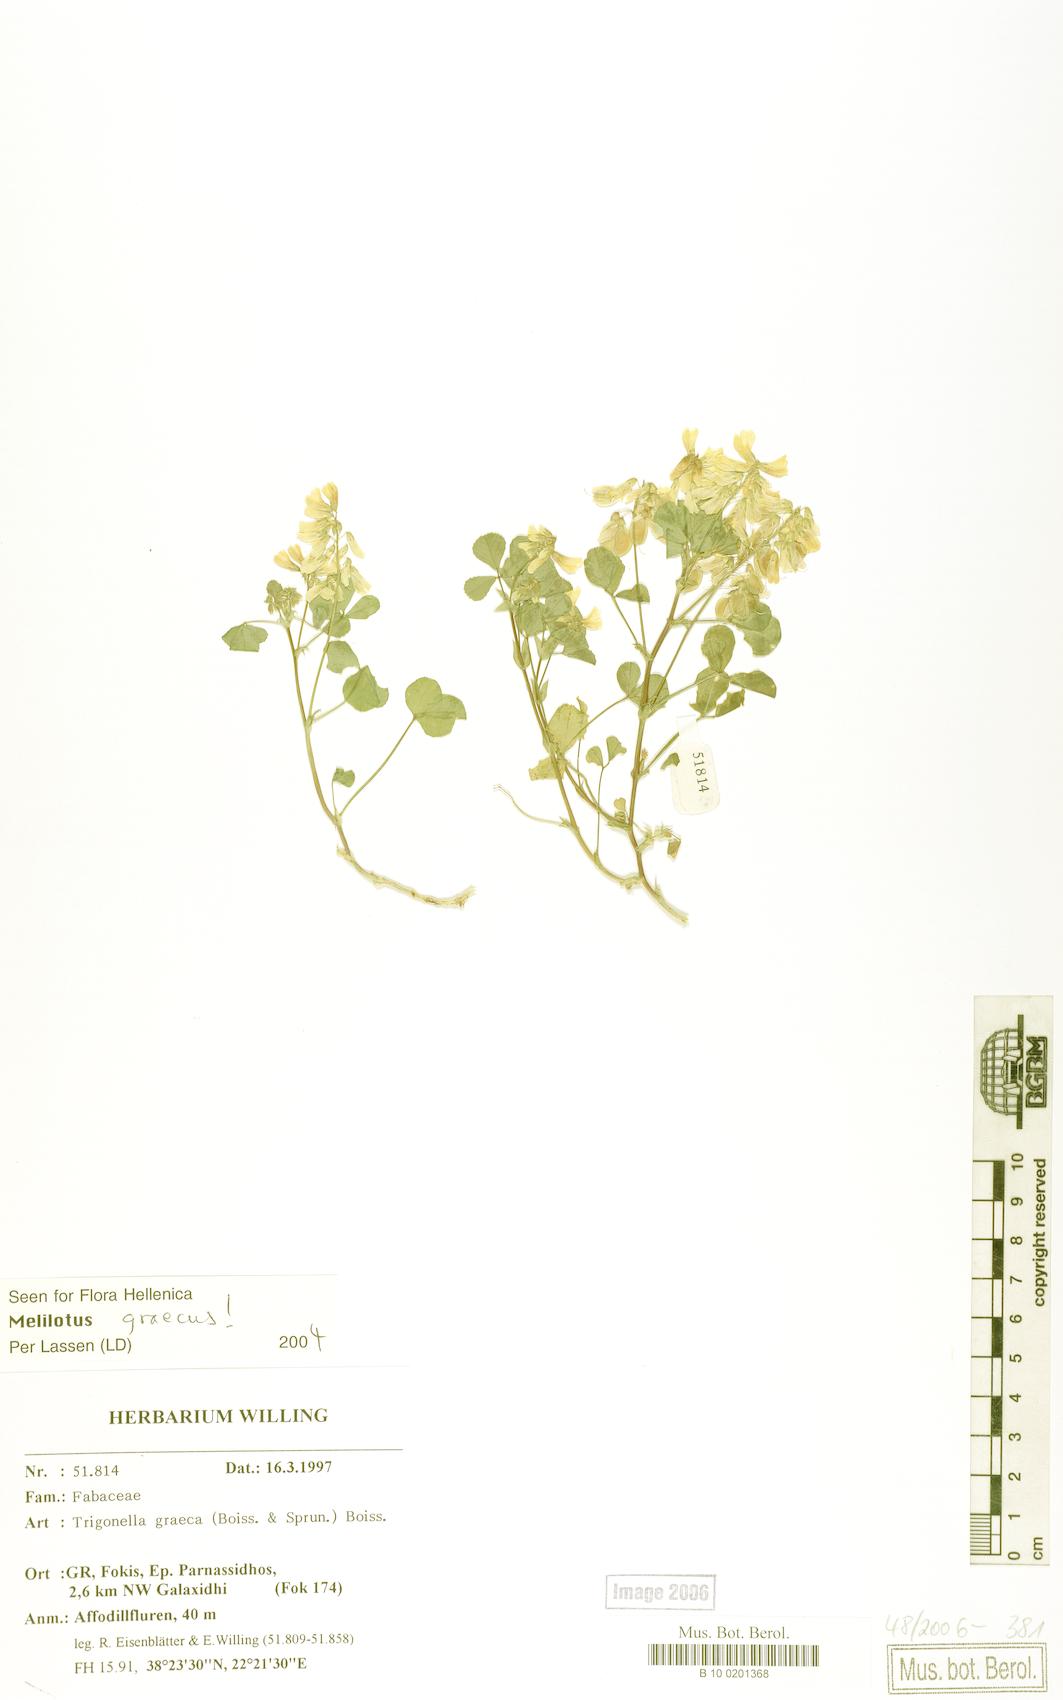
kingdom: Plantae
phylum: Tracheophyta
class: Magnoliopsida
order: Fabales
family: Fabaceae
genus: Trigonella
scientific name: Trigonella graeca
